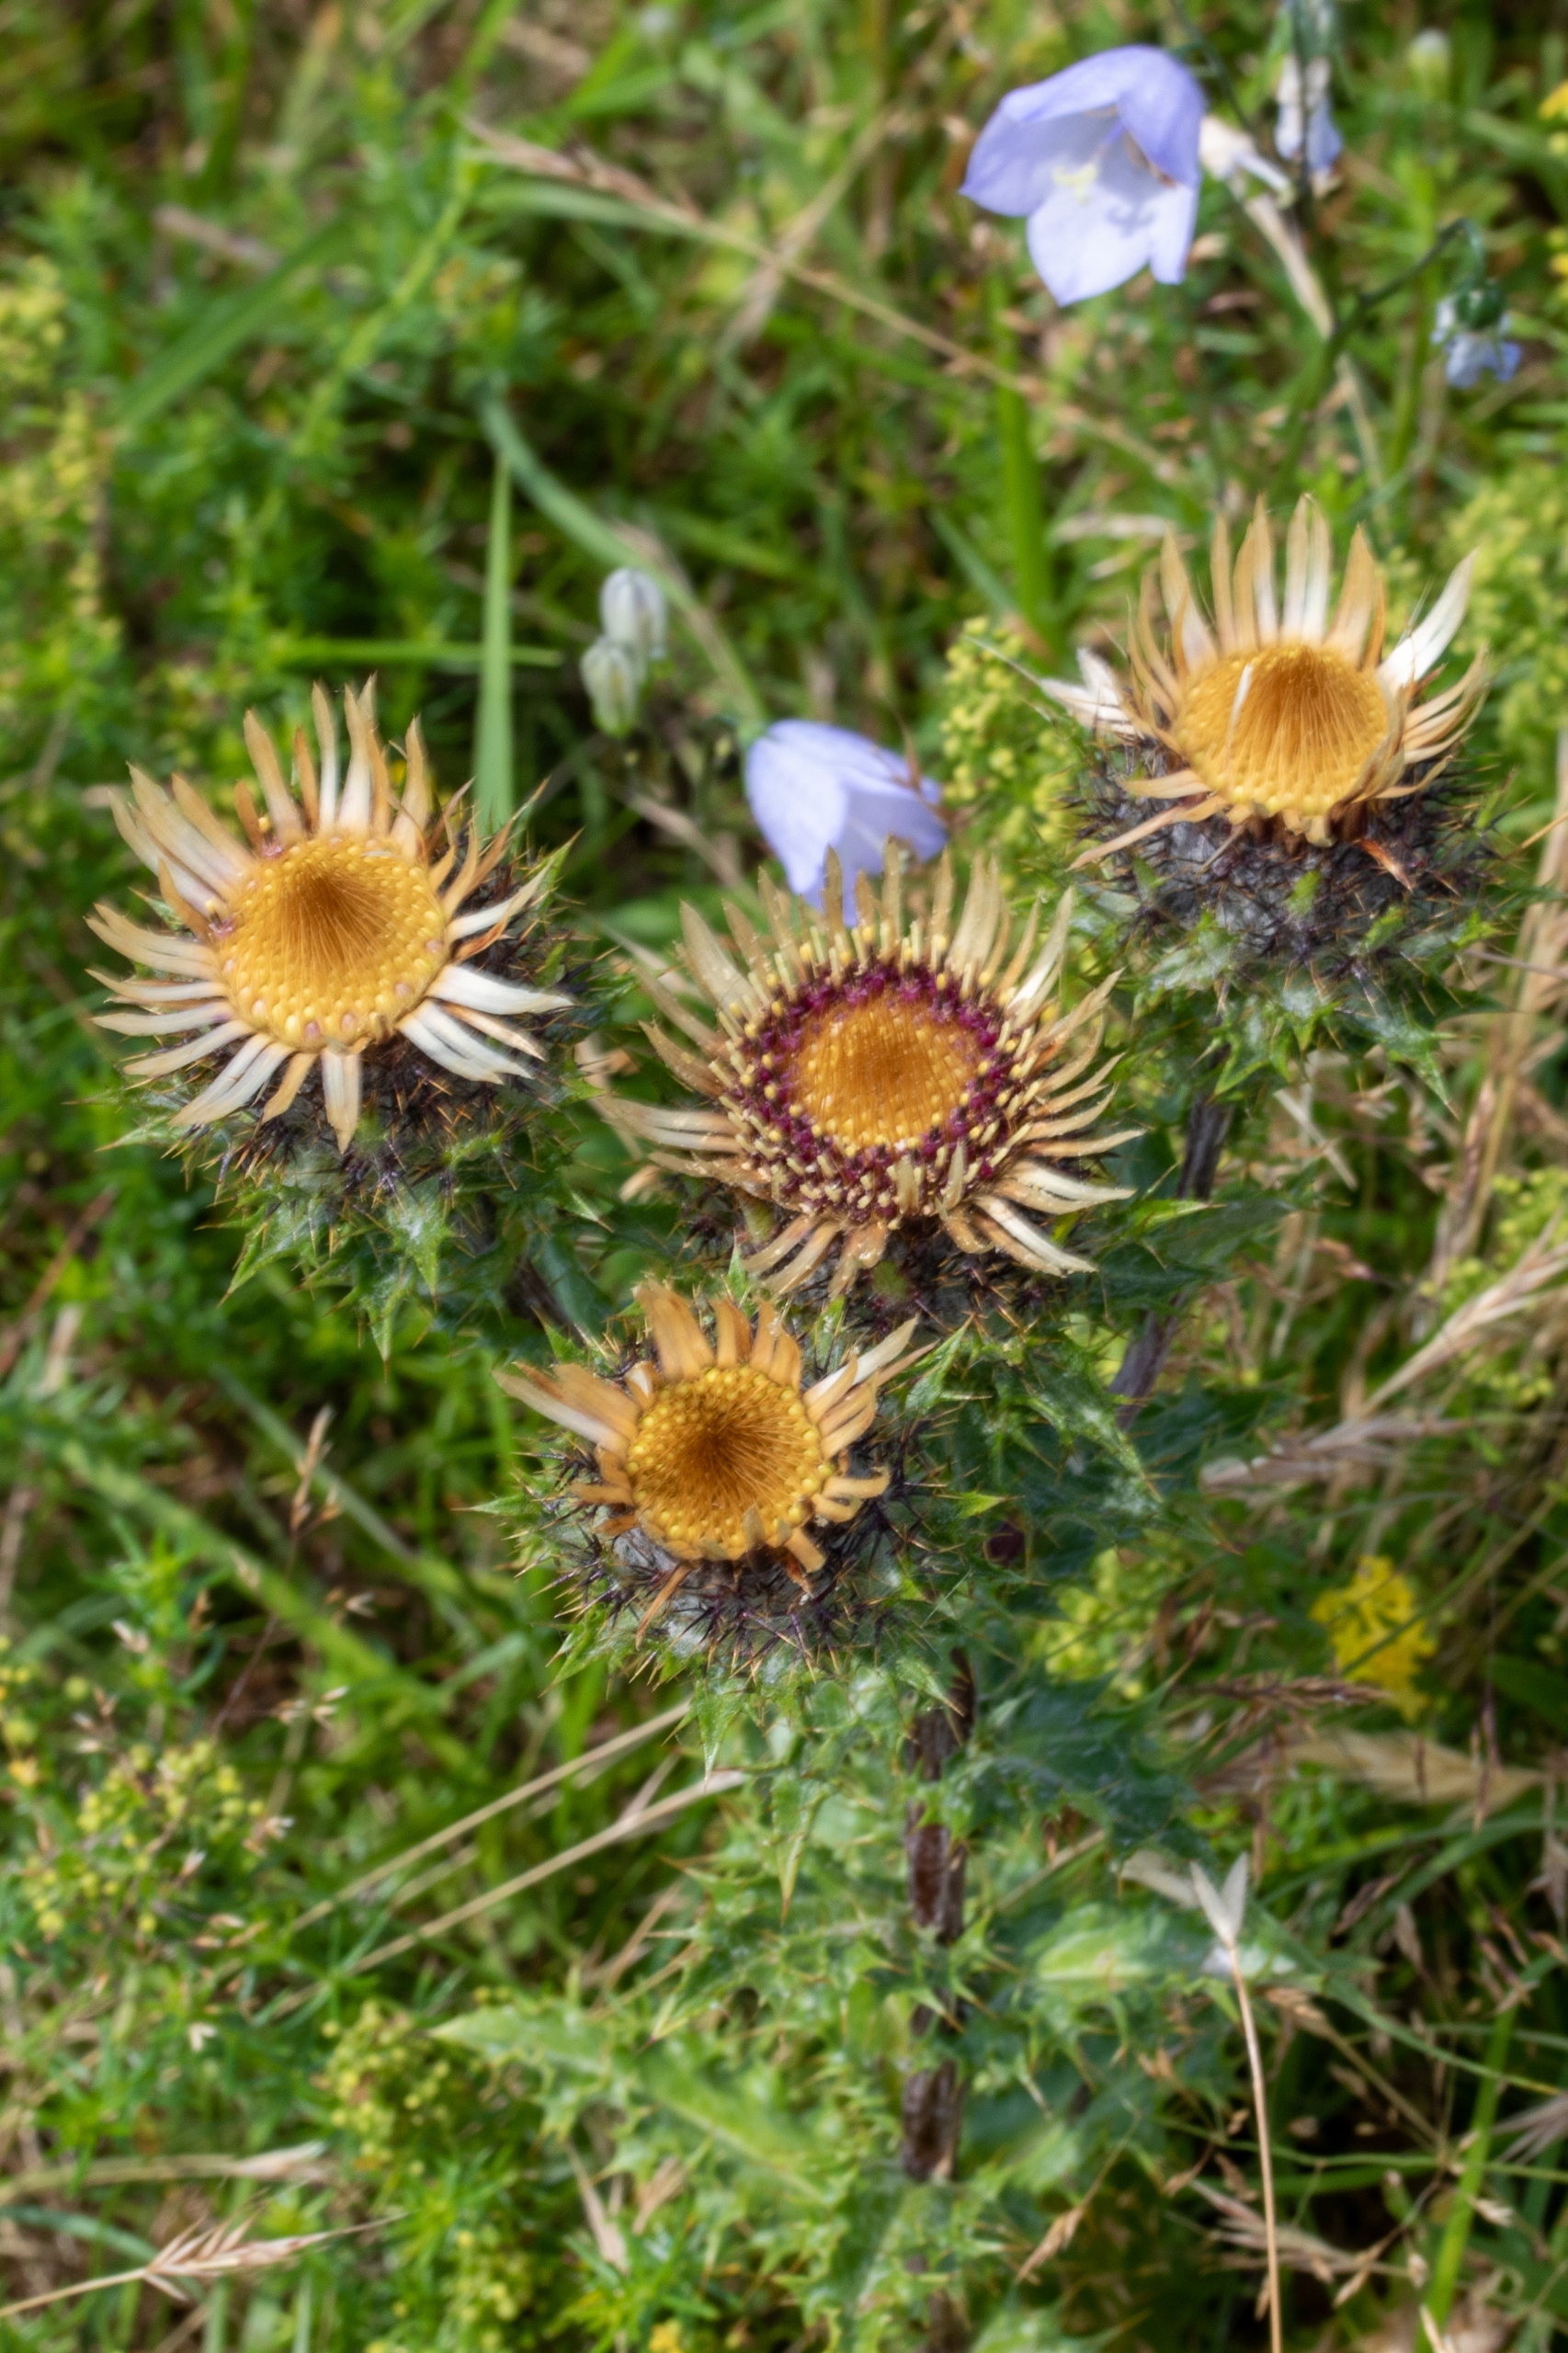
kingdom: Plantae
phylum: Tracheophyta
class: Magnoliopsida
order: Asterales
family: Asteraceae
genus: Carlina
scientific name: Carlina vulgaris
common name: Bakketidsel
